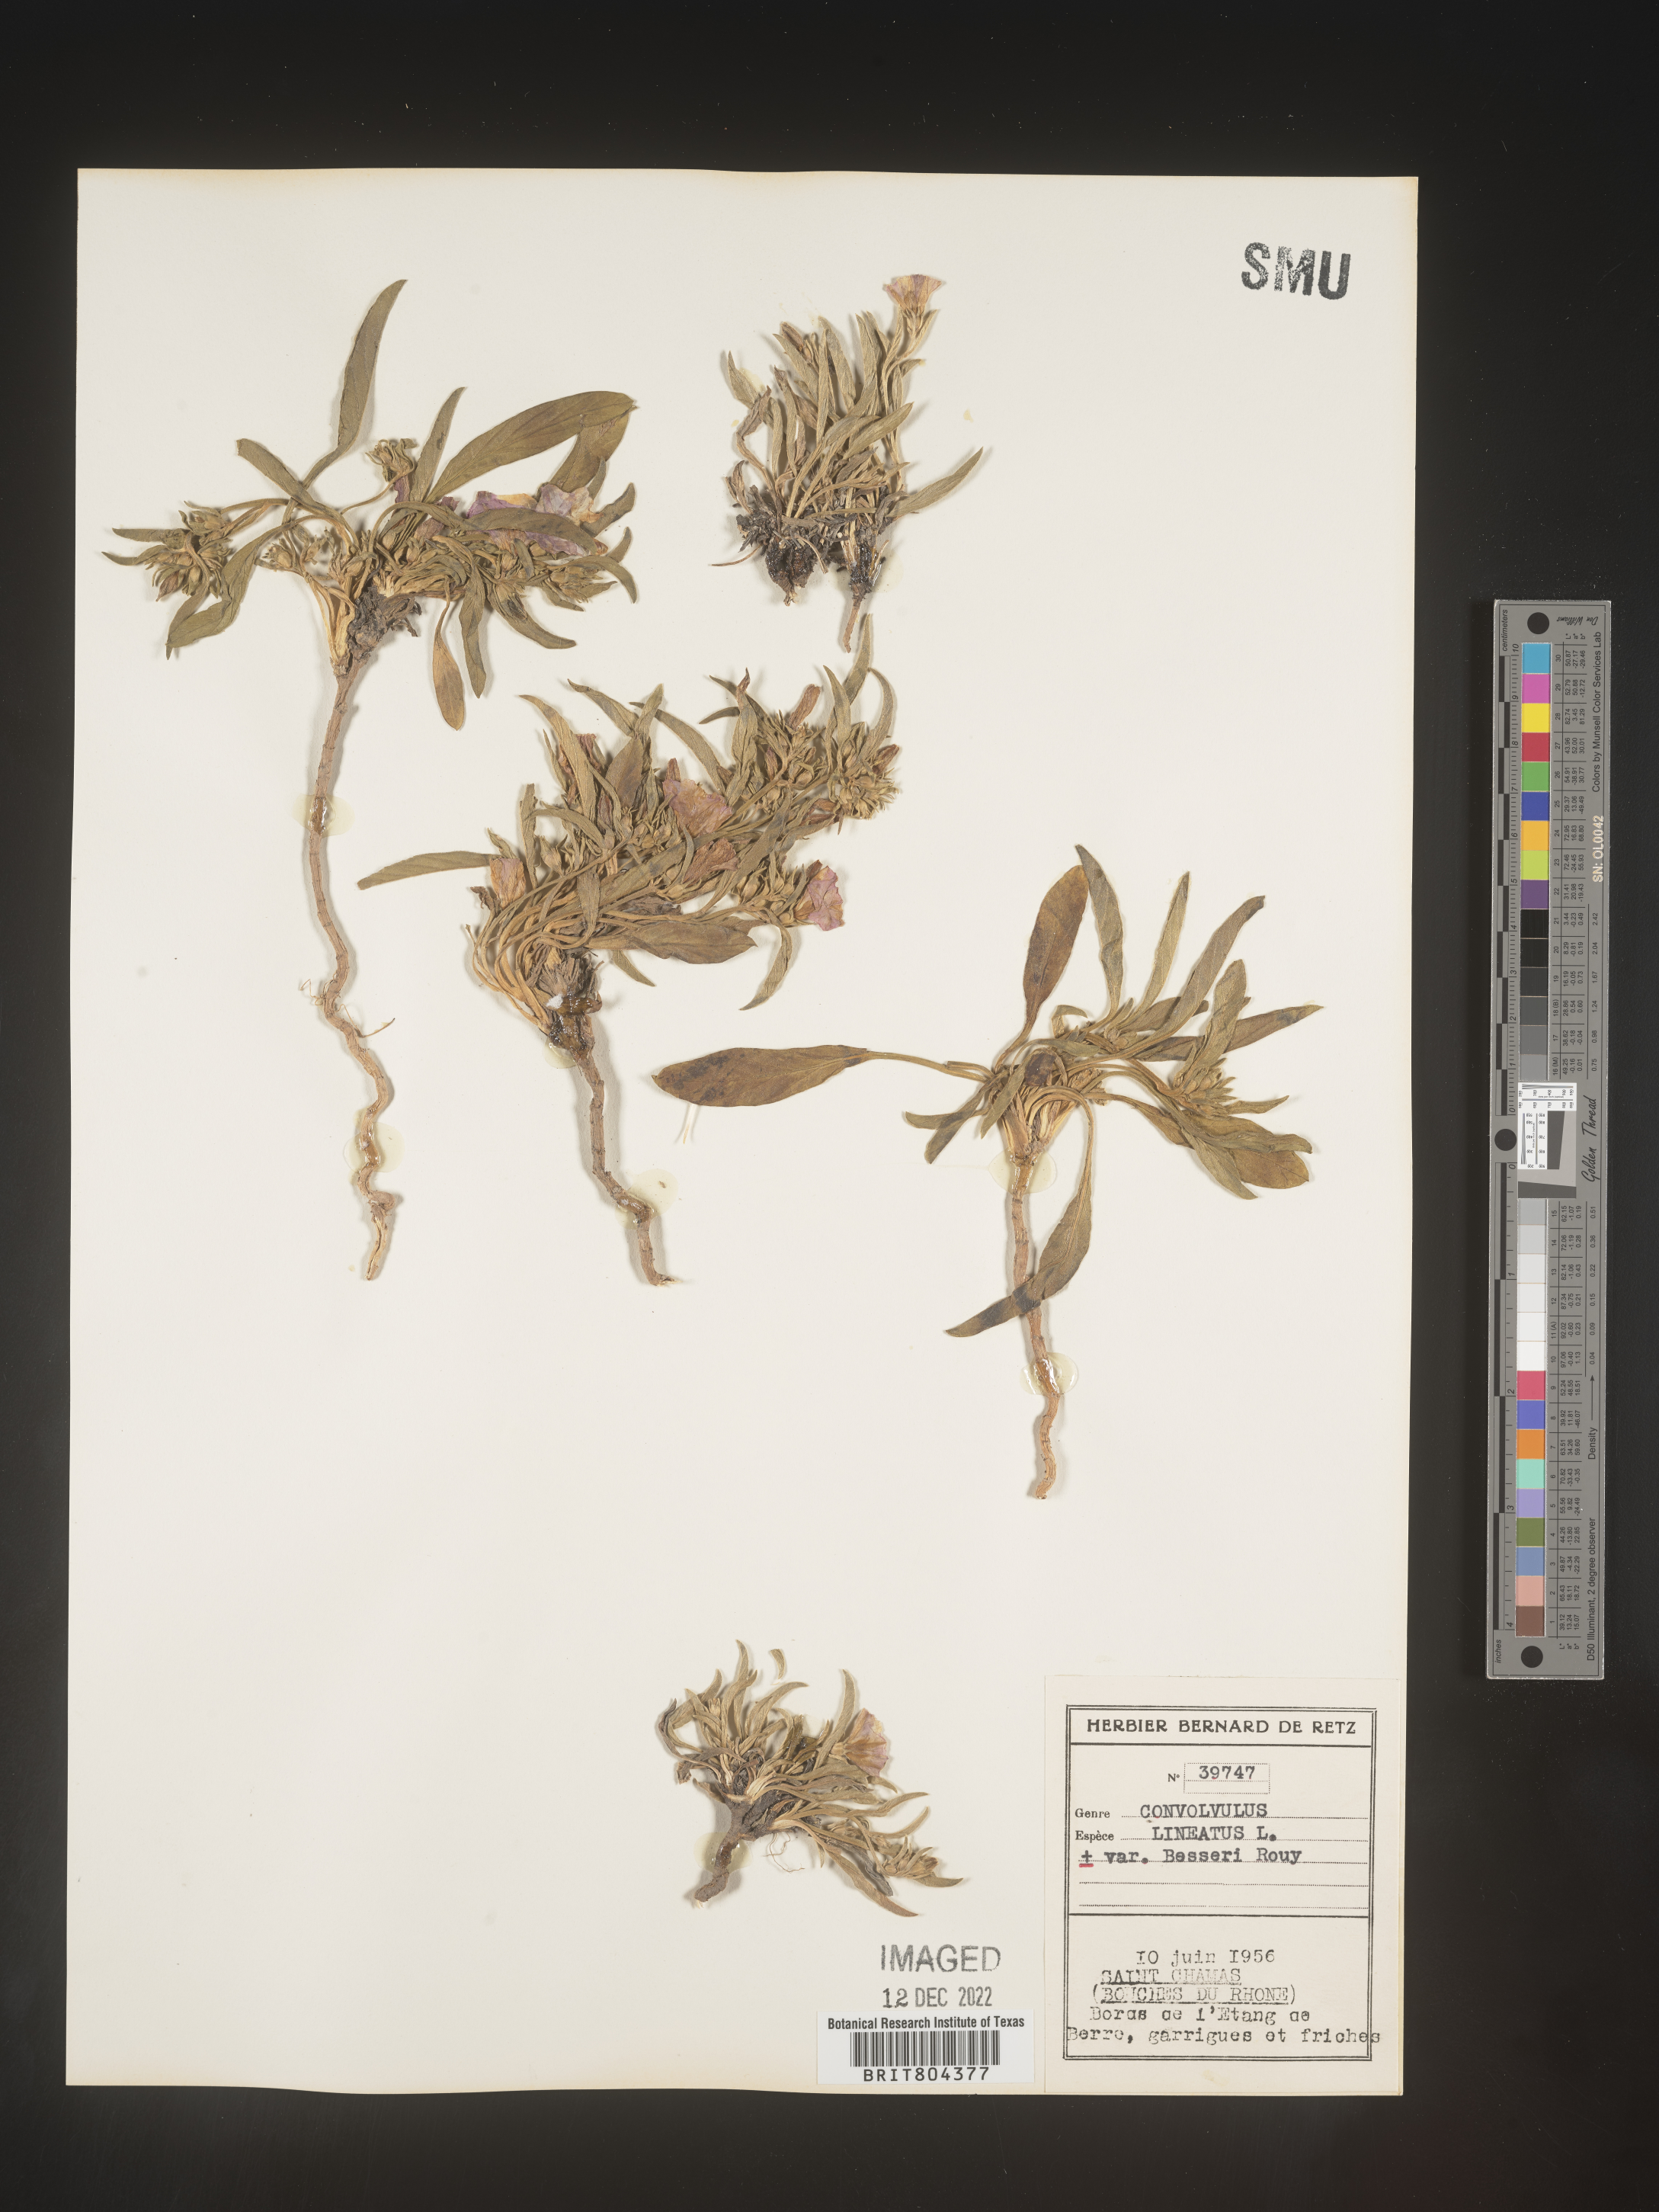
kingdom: Plantae
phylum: Tracheophyta
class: Magnoliopsida
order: Solanales
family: Convolvulaceae
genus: Convolvulus
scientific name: Convolvulus
